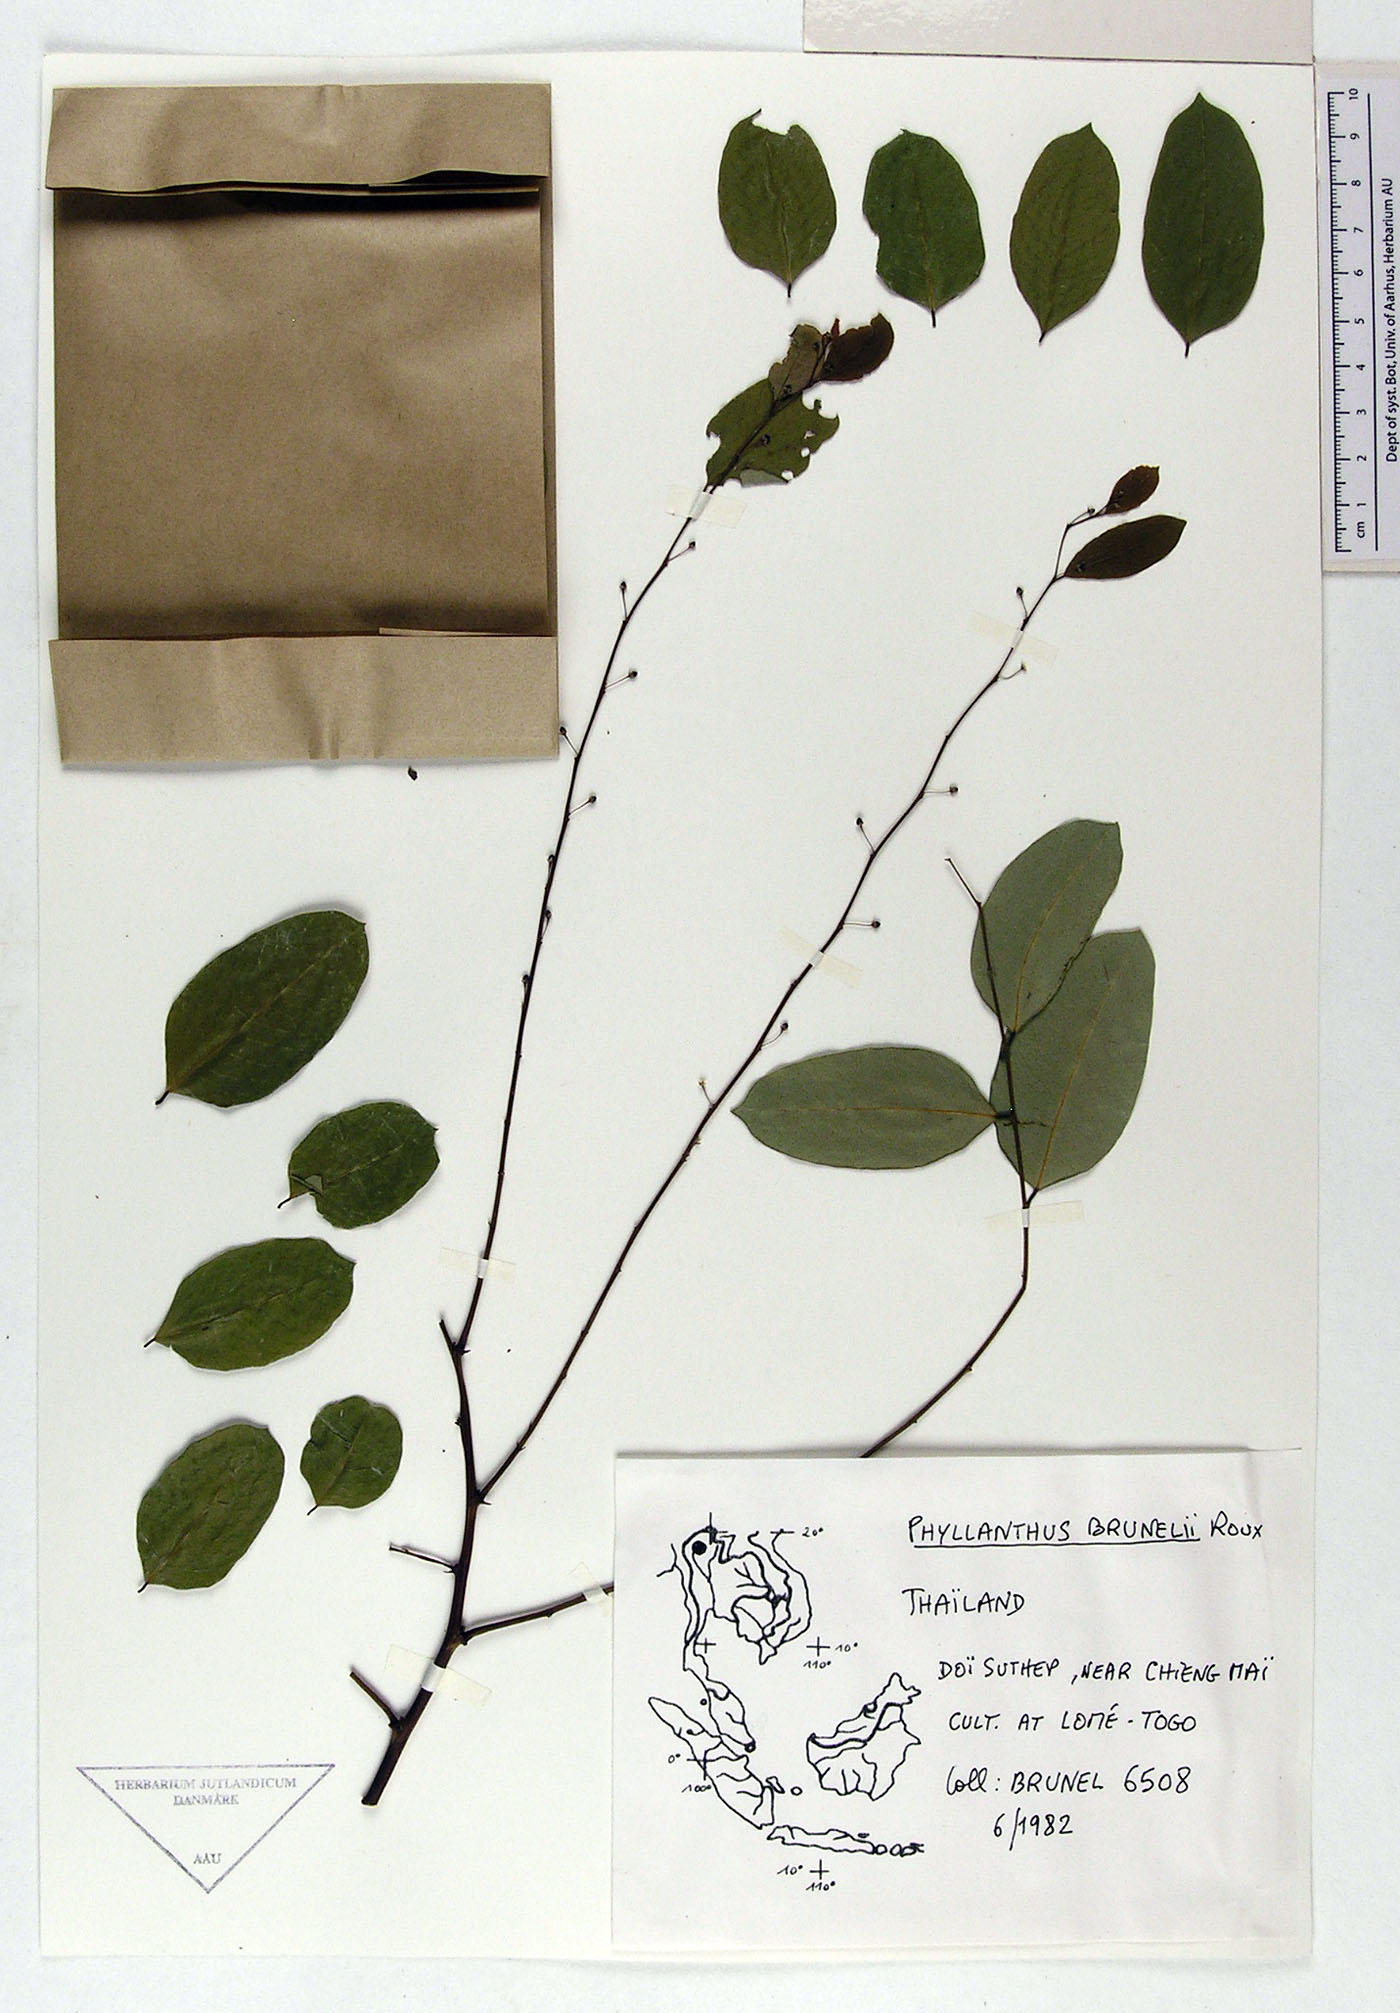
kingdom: Plantae
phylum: Tracheophyta
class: Magnoliopsida
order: Malpighiales
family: Phyllanthaceae
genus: Phyllanthus
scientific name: Phyllanthus microcarpus
